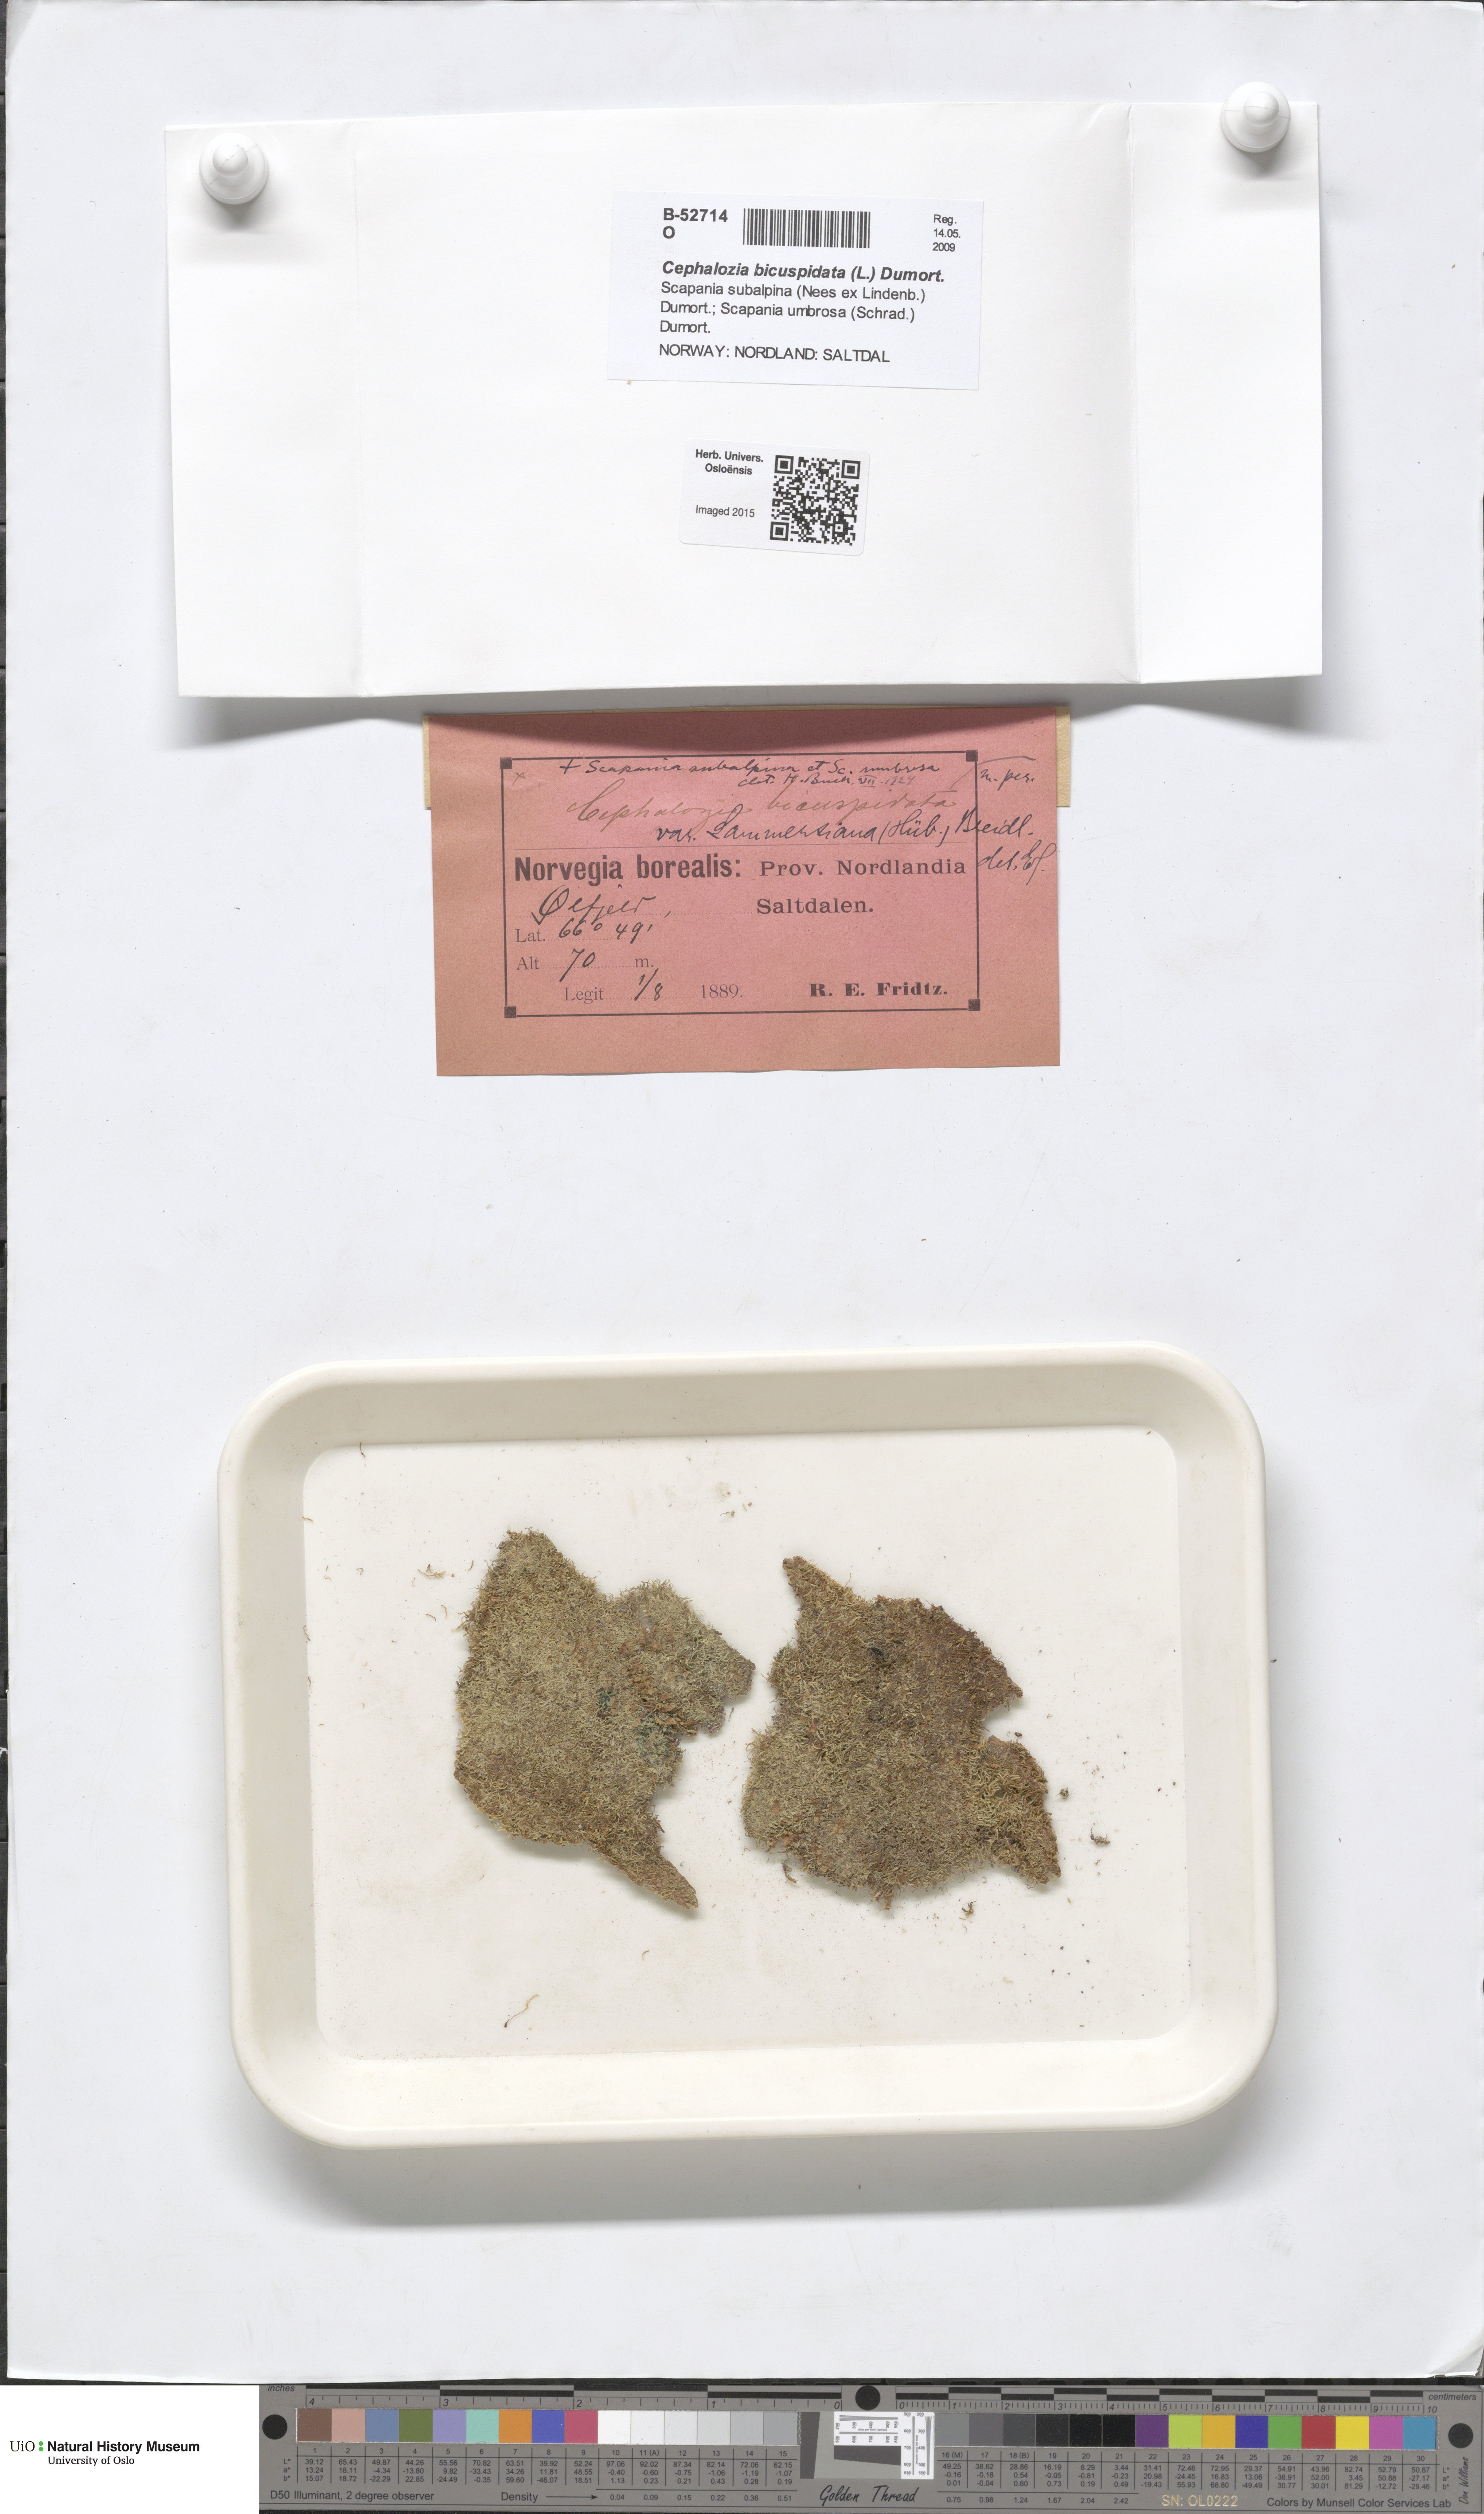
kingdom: Plantae
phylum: Marchantiophyta
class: Jungermanniopsida
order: Jungermanniales
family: Cephaloziaceae
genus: Cephalozia
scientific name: Cephalozia bicuspidata
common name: Two-horned pincerwort
